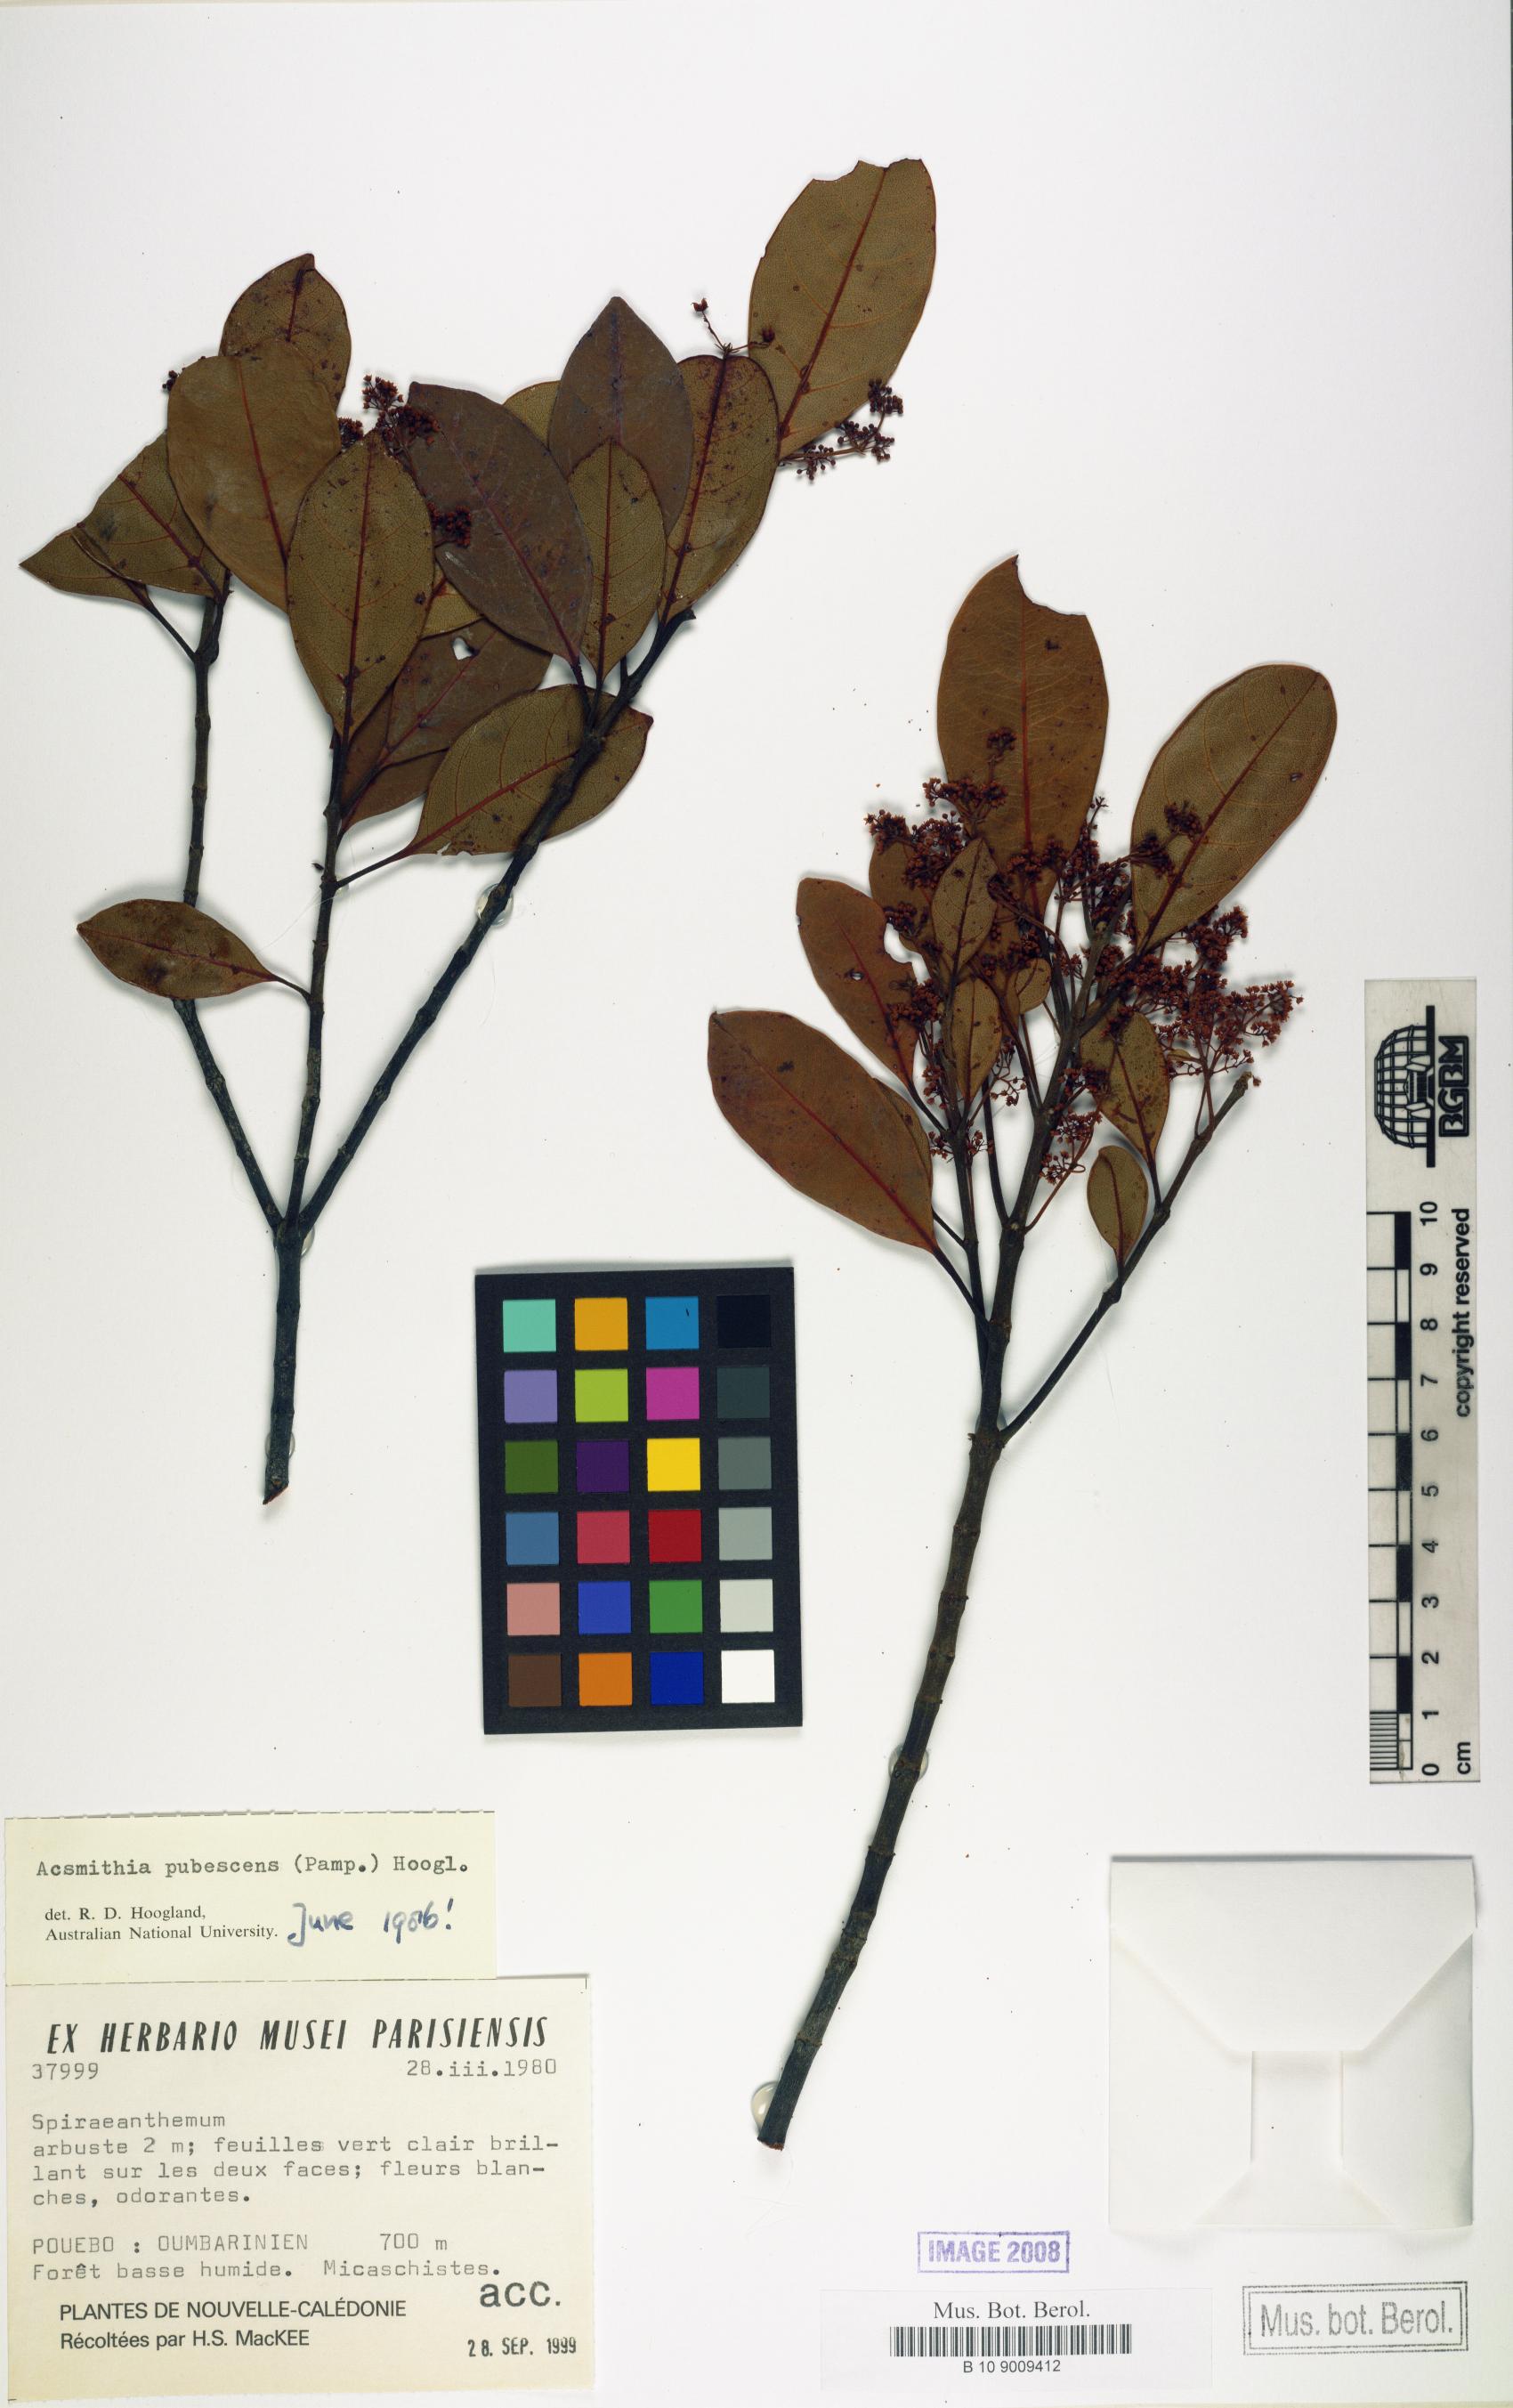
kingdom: Plantae
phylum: Tracheophyta
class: Magnoliopsida
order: Oxalidales
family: Cunoniaceae
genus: Spiraeanthemum
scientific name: Spiraeanthemum pubescens
